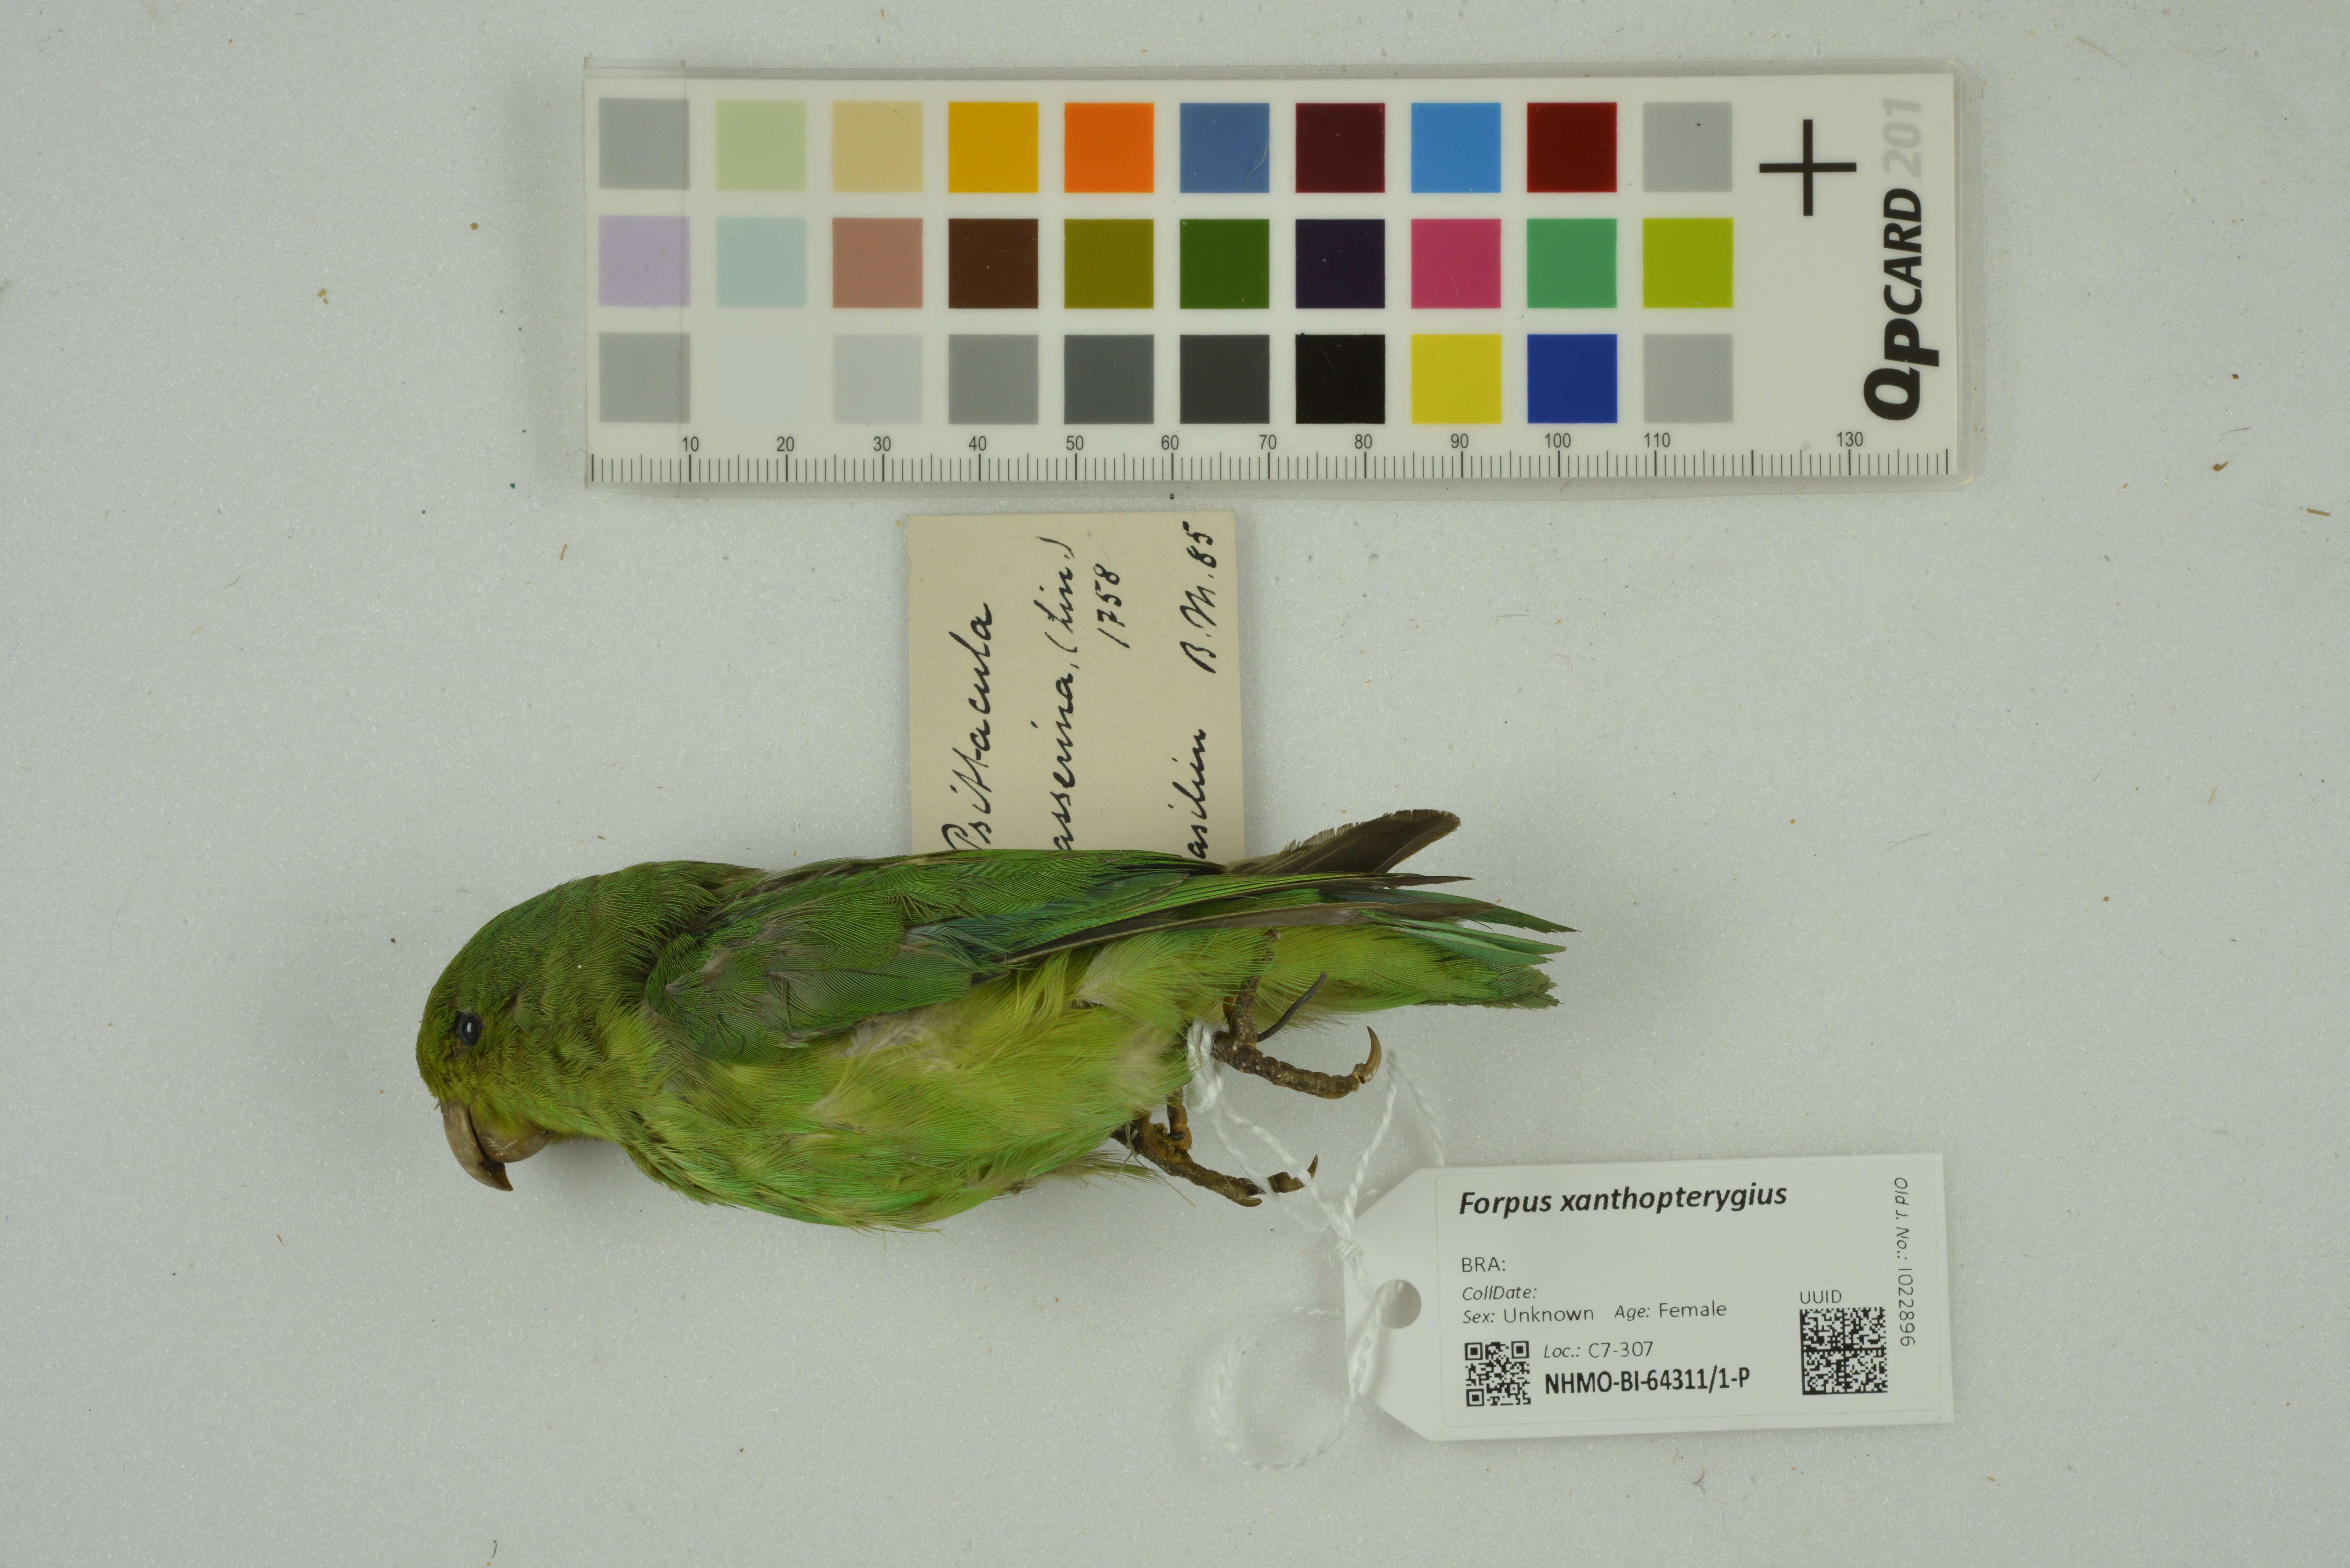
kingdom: Animalia
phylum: Chordata
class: Aves
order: Psittaciformes
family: Psittacidae
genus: Forpus
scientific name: Forpus xanthopterygius
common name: Blue-winged parrotlet
